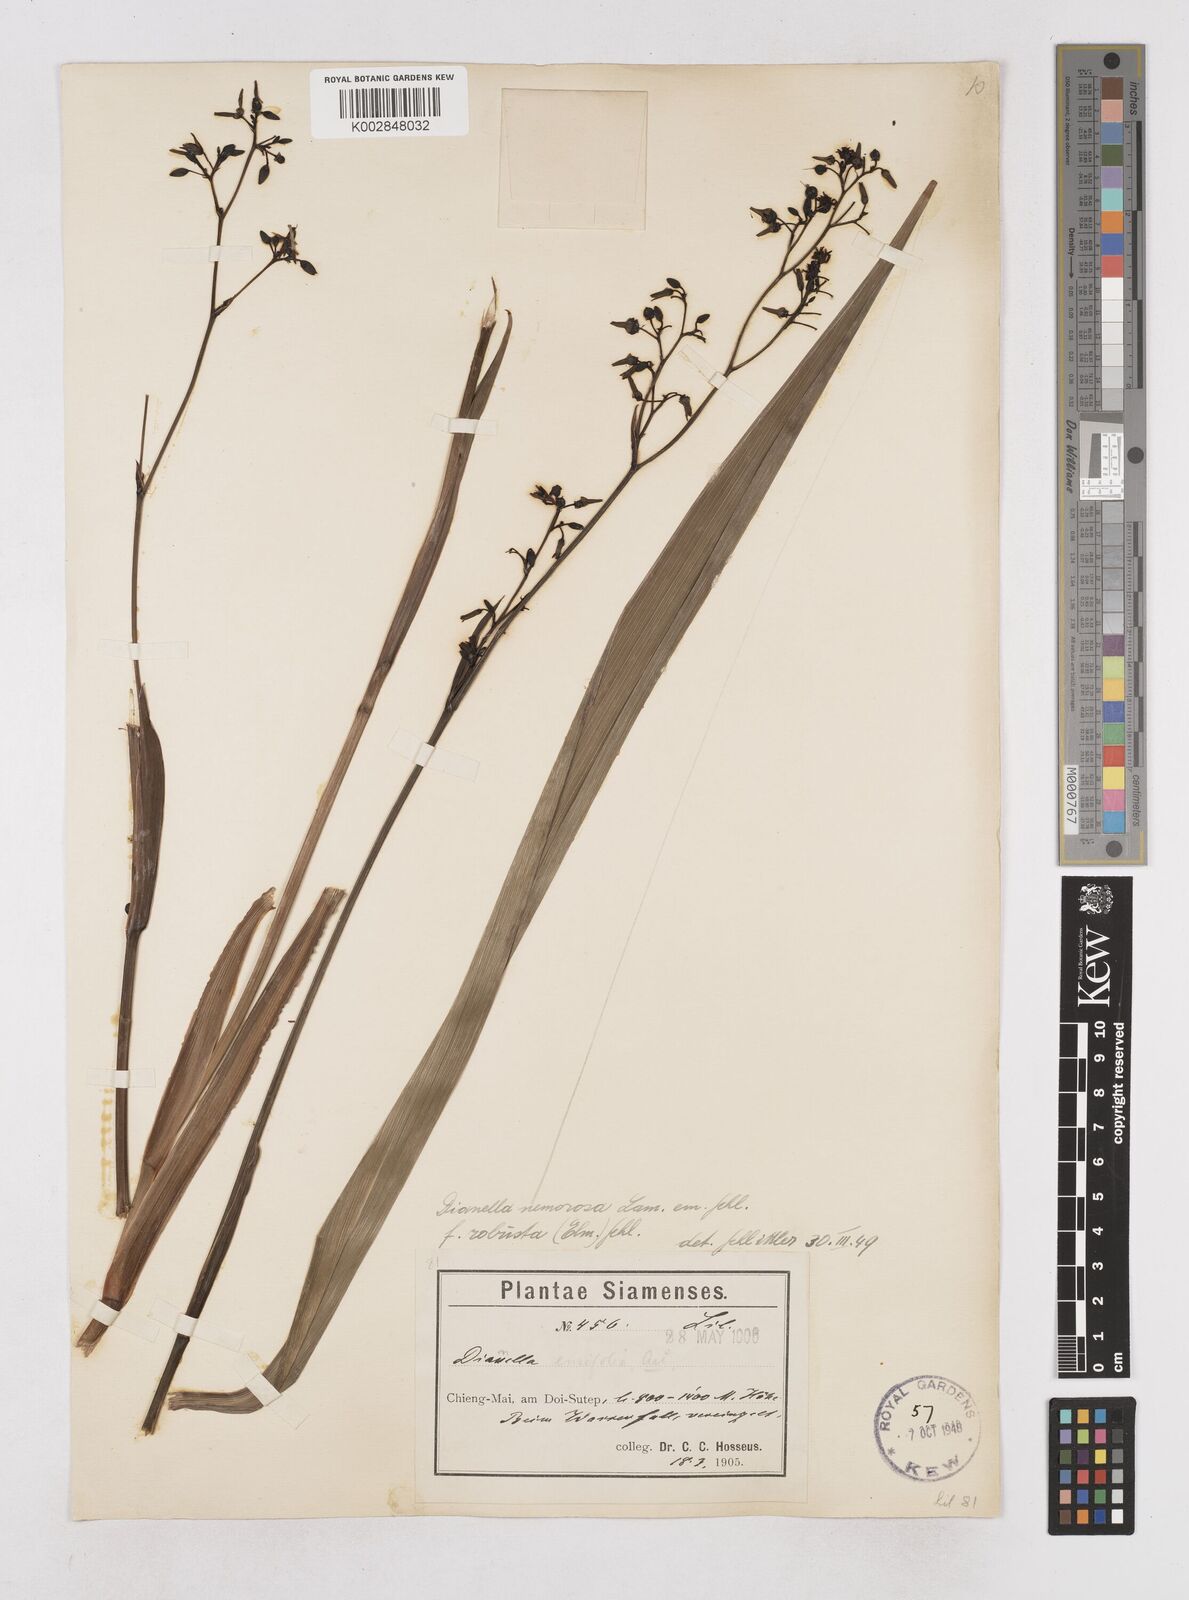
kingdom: Plantae
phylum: Tracheophyta
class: Liliopsida
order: Asparagales
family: Asphodelaceae
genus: Dianella
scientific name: Dianella ensifolia
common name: New zealand lilyplant
